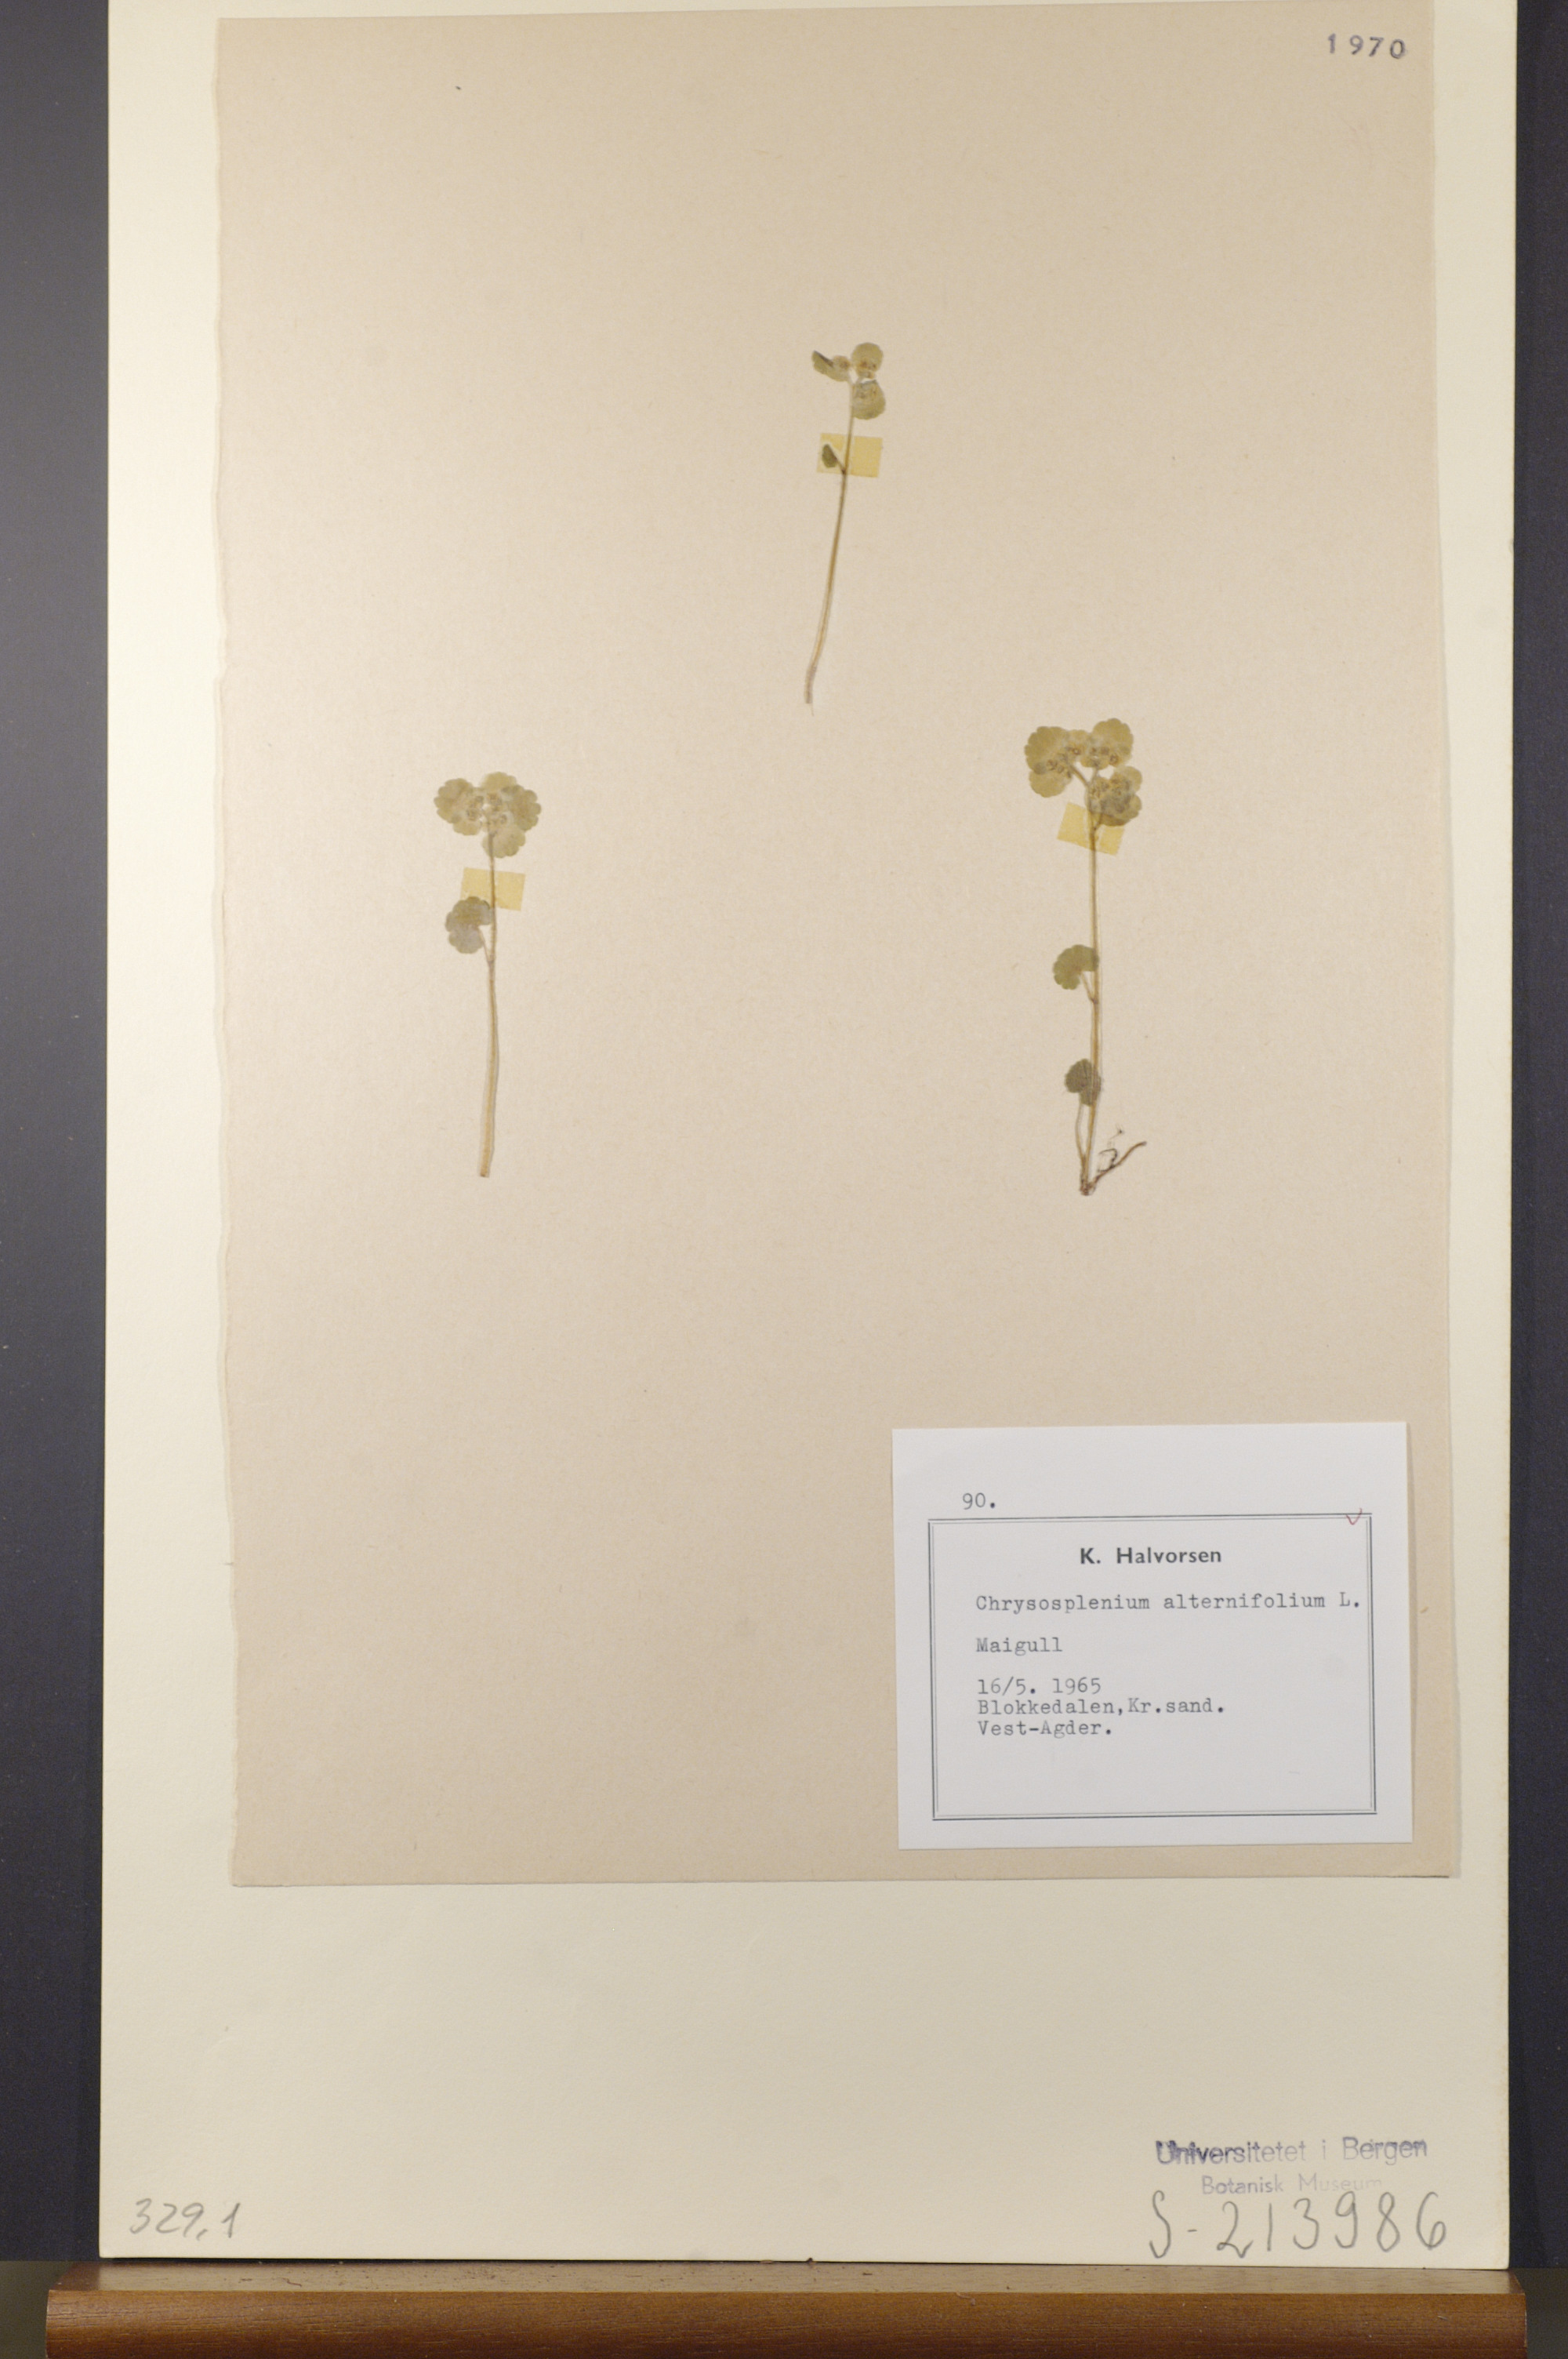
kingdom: Plantae
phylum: Tracheophyta
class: Magnoliopsida
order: Saxifragales
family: Saxifragaceae
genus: Chrysosplenium
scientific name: Chrysosplenium alternifolium
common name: Alternate-leaved golden-saxifrage
